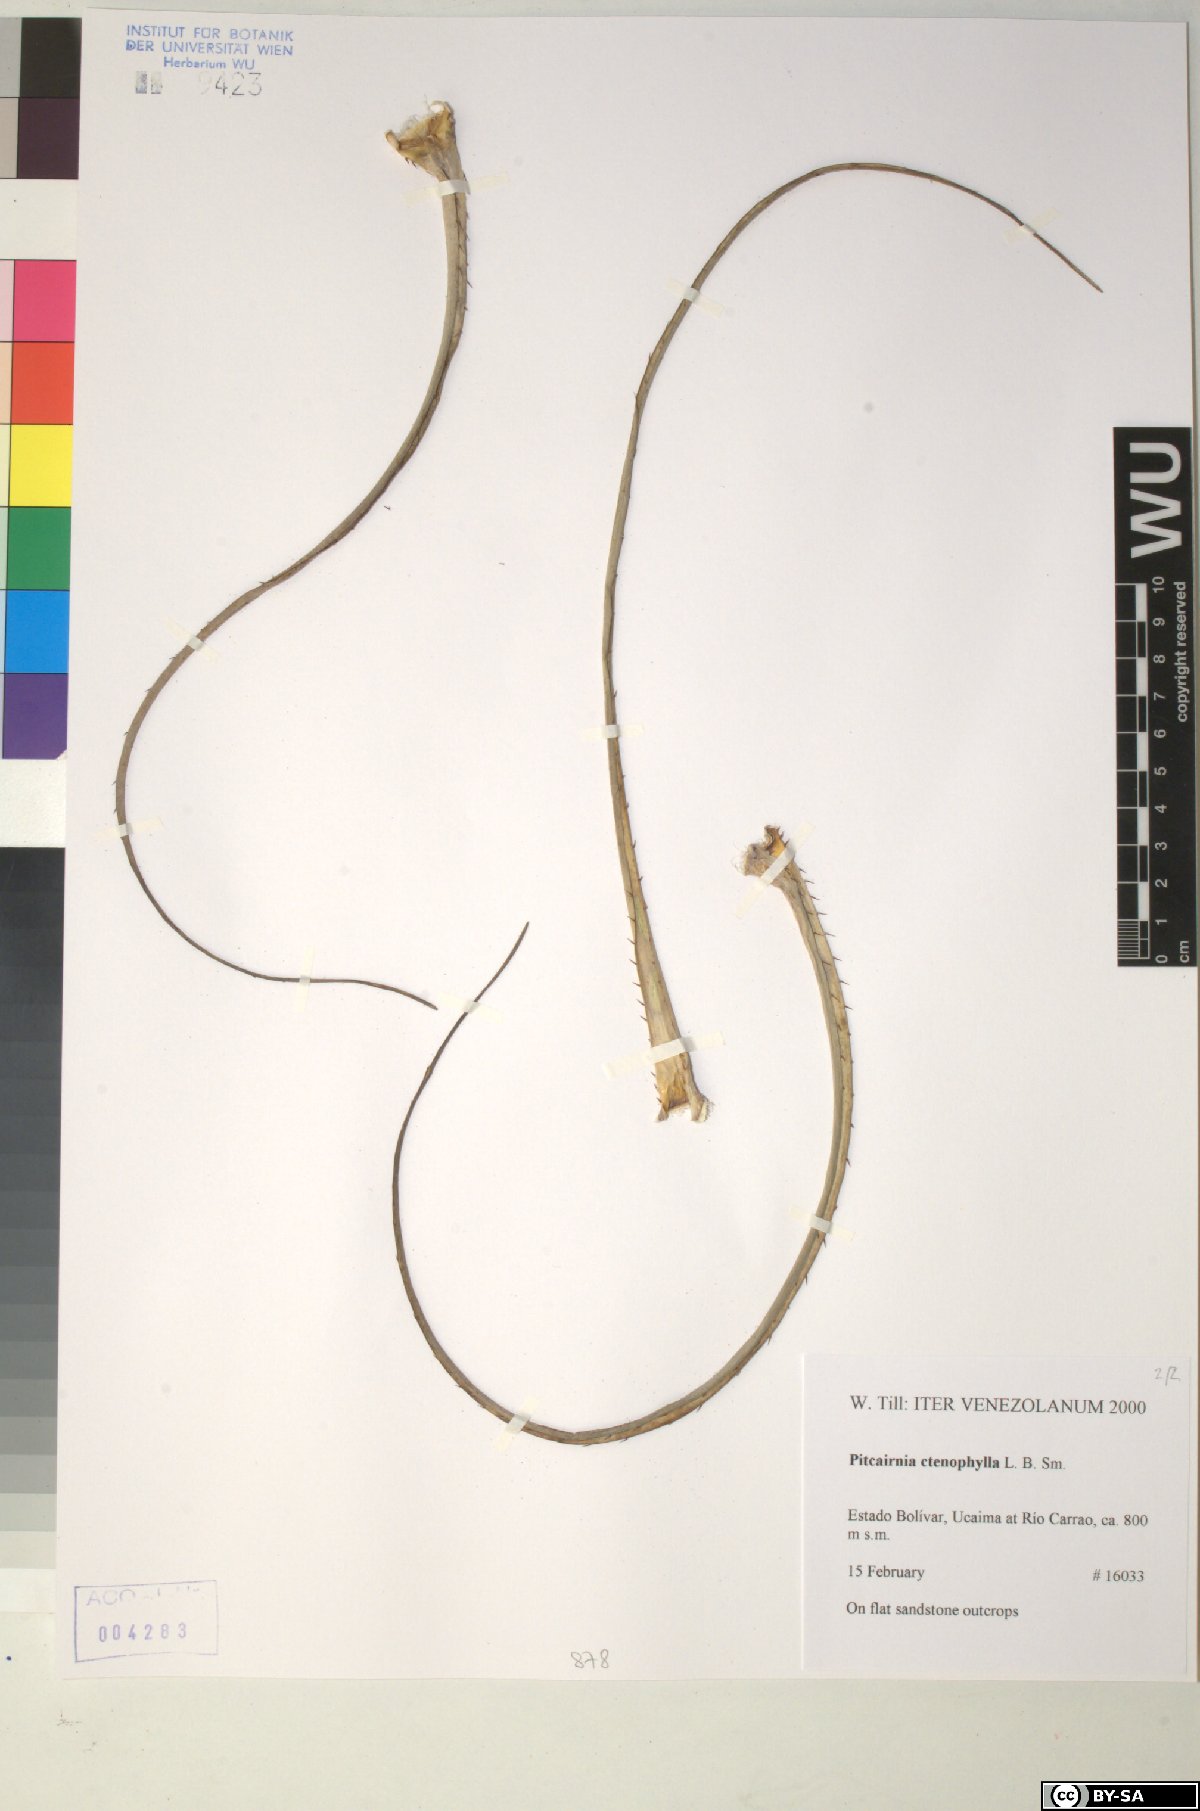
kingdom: Plantae
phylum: Tracheophyta
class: Liliopsida
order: Poales
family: Bromeliaceae
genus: Pitcairnia
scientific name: Pitcairnia ctenophylla
